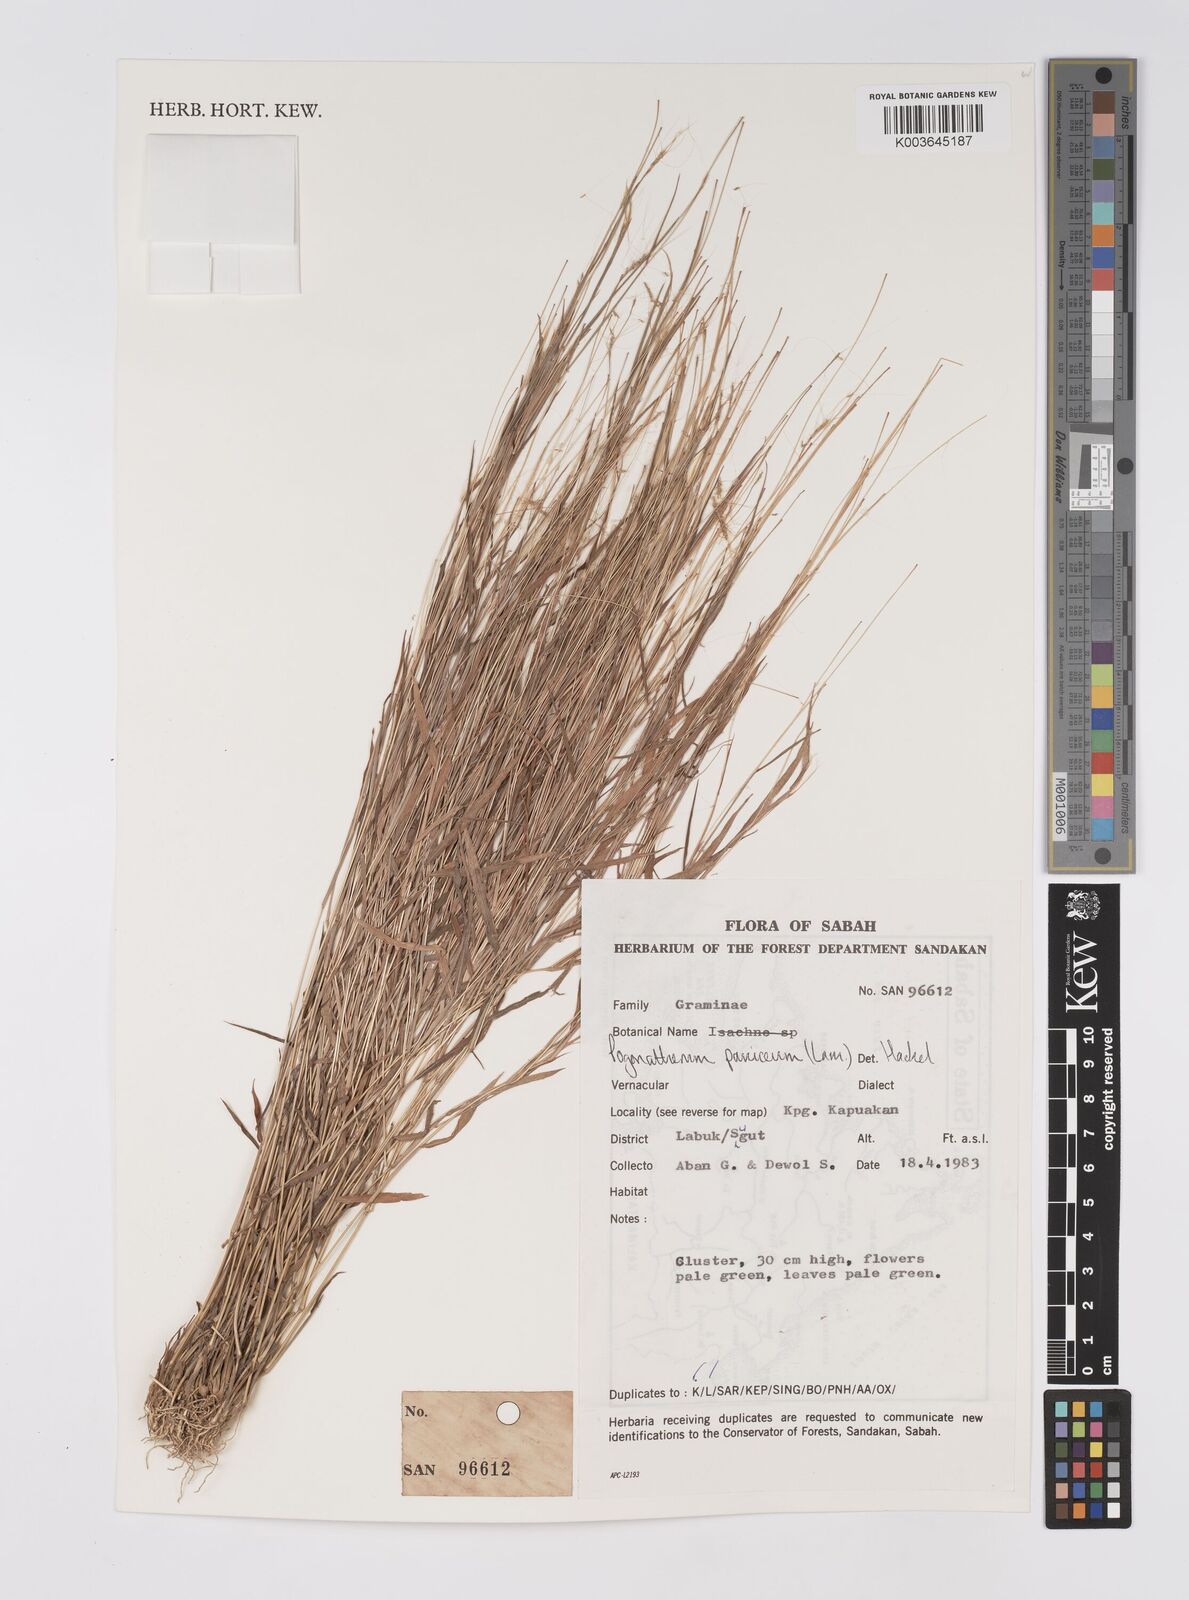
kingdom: Plantae
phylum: Tracheophyta
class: Liliopsida
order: Poales
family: Poaceae
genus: Pogonatherum
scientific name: Pogonatherum crinitum
